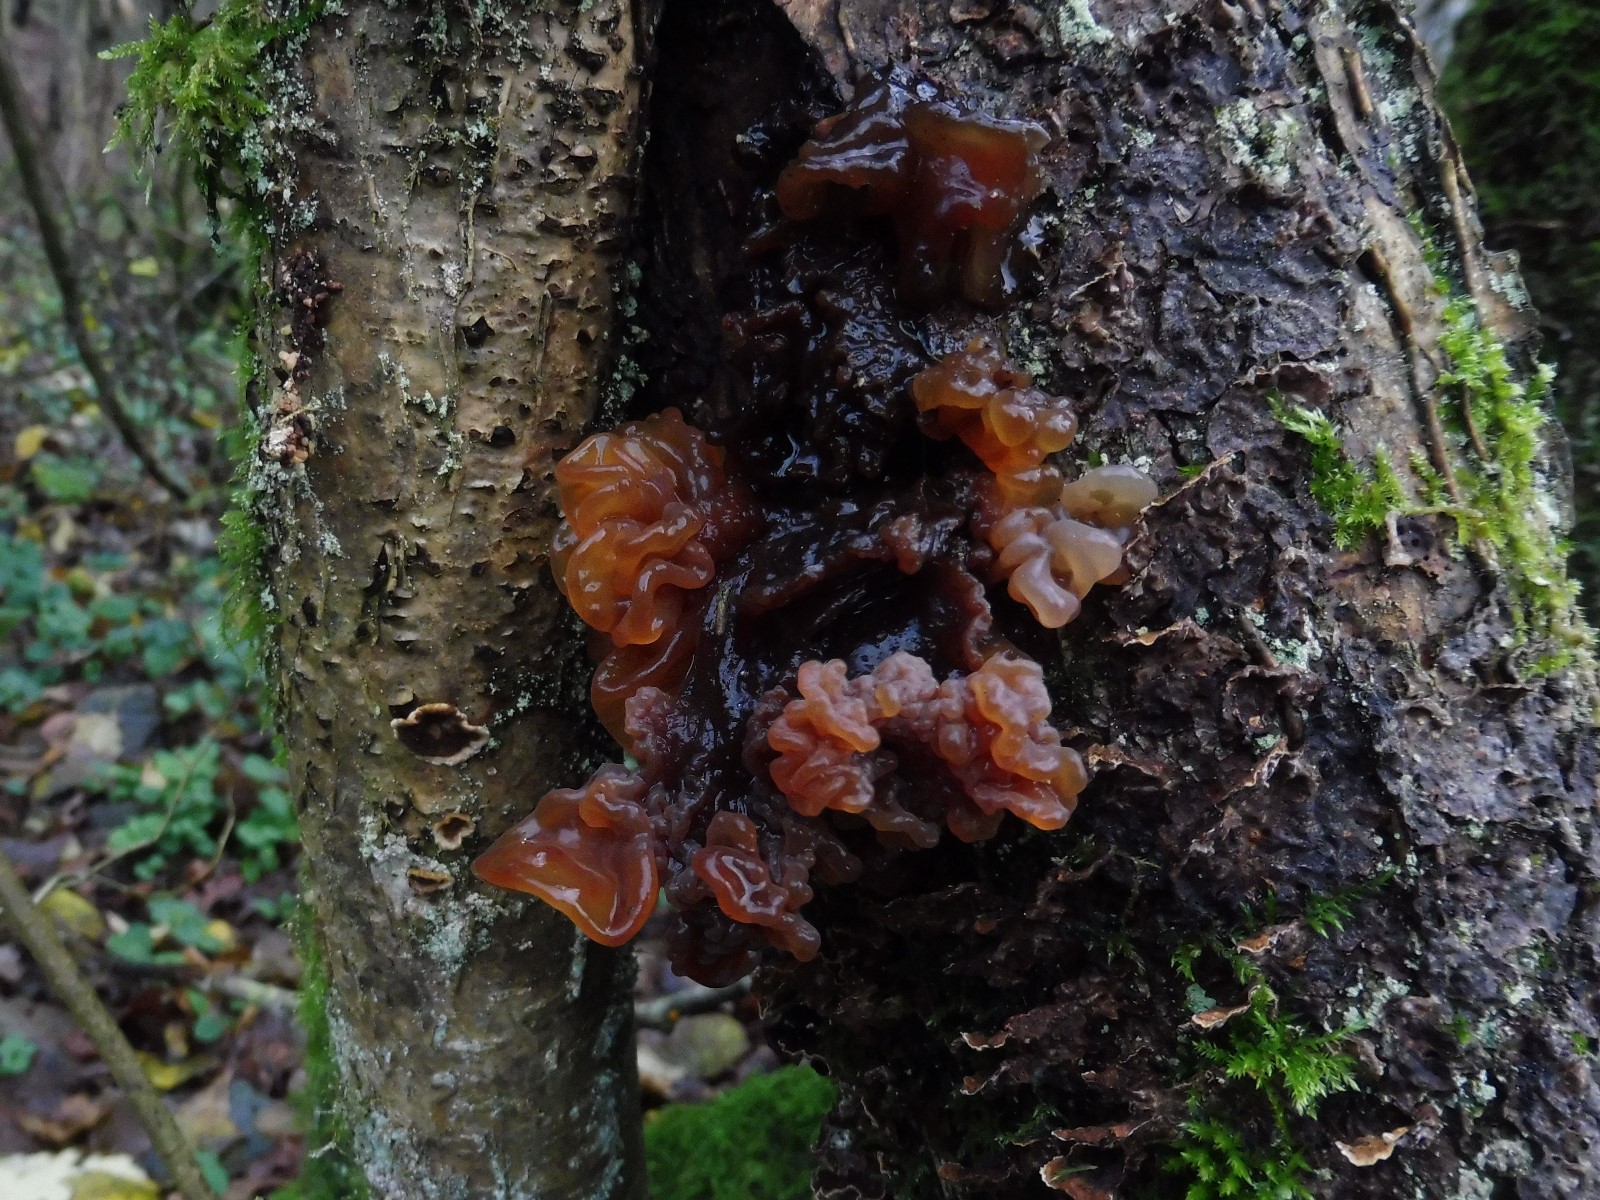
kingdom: Fungi
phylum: Basidiomycota
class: Tremellomycetes
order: Tremellales
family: Tremellaceae
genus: Phaeotremella
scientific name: Phaeotremella frondosa
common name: kæmpe-bævresvamp
